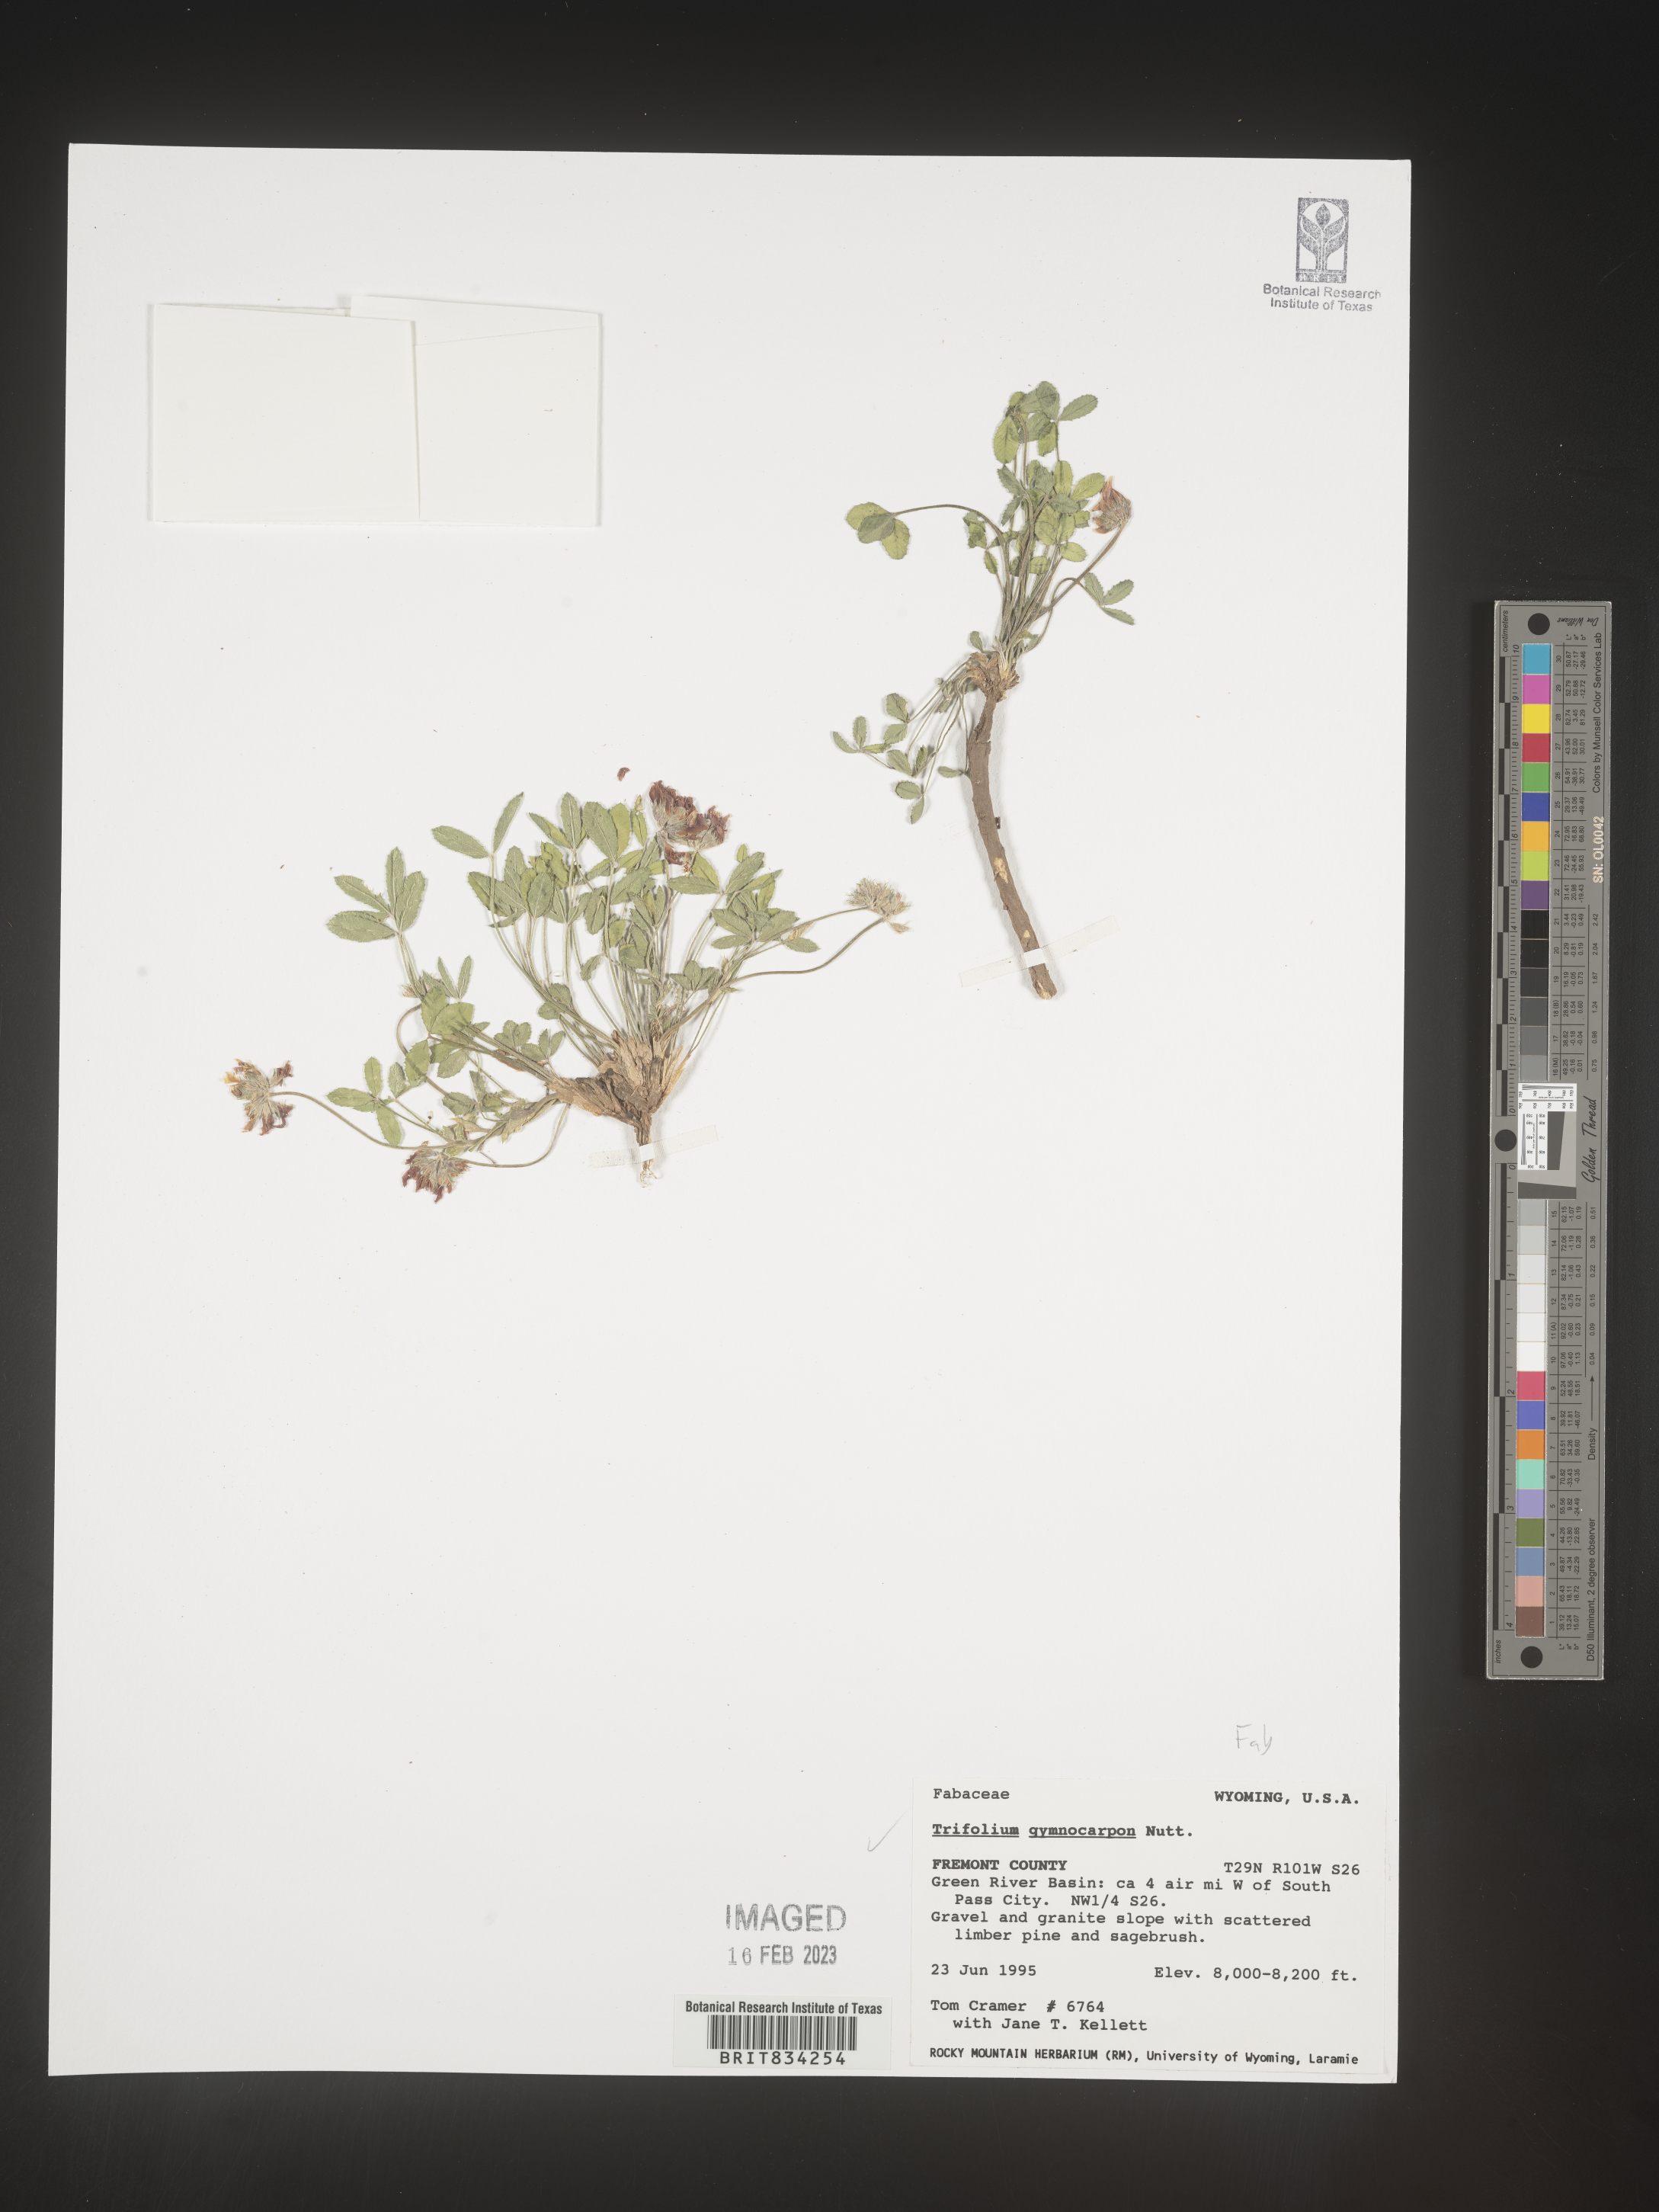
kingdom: Plantae
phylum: Tracheophyta
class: Magnoliopsida
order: Fabales
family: Fabaceae
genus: Trifolium
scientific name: Trifolium
